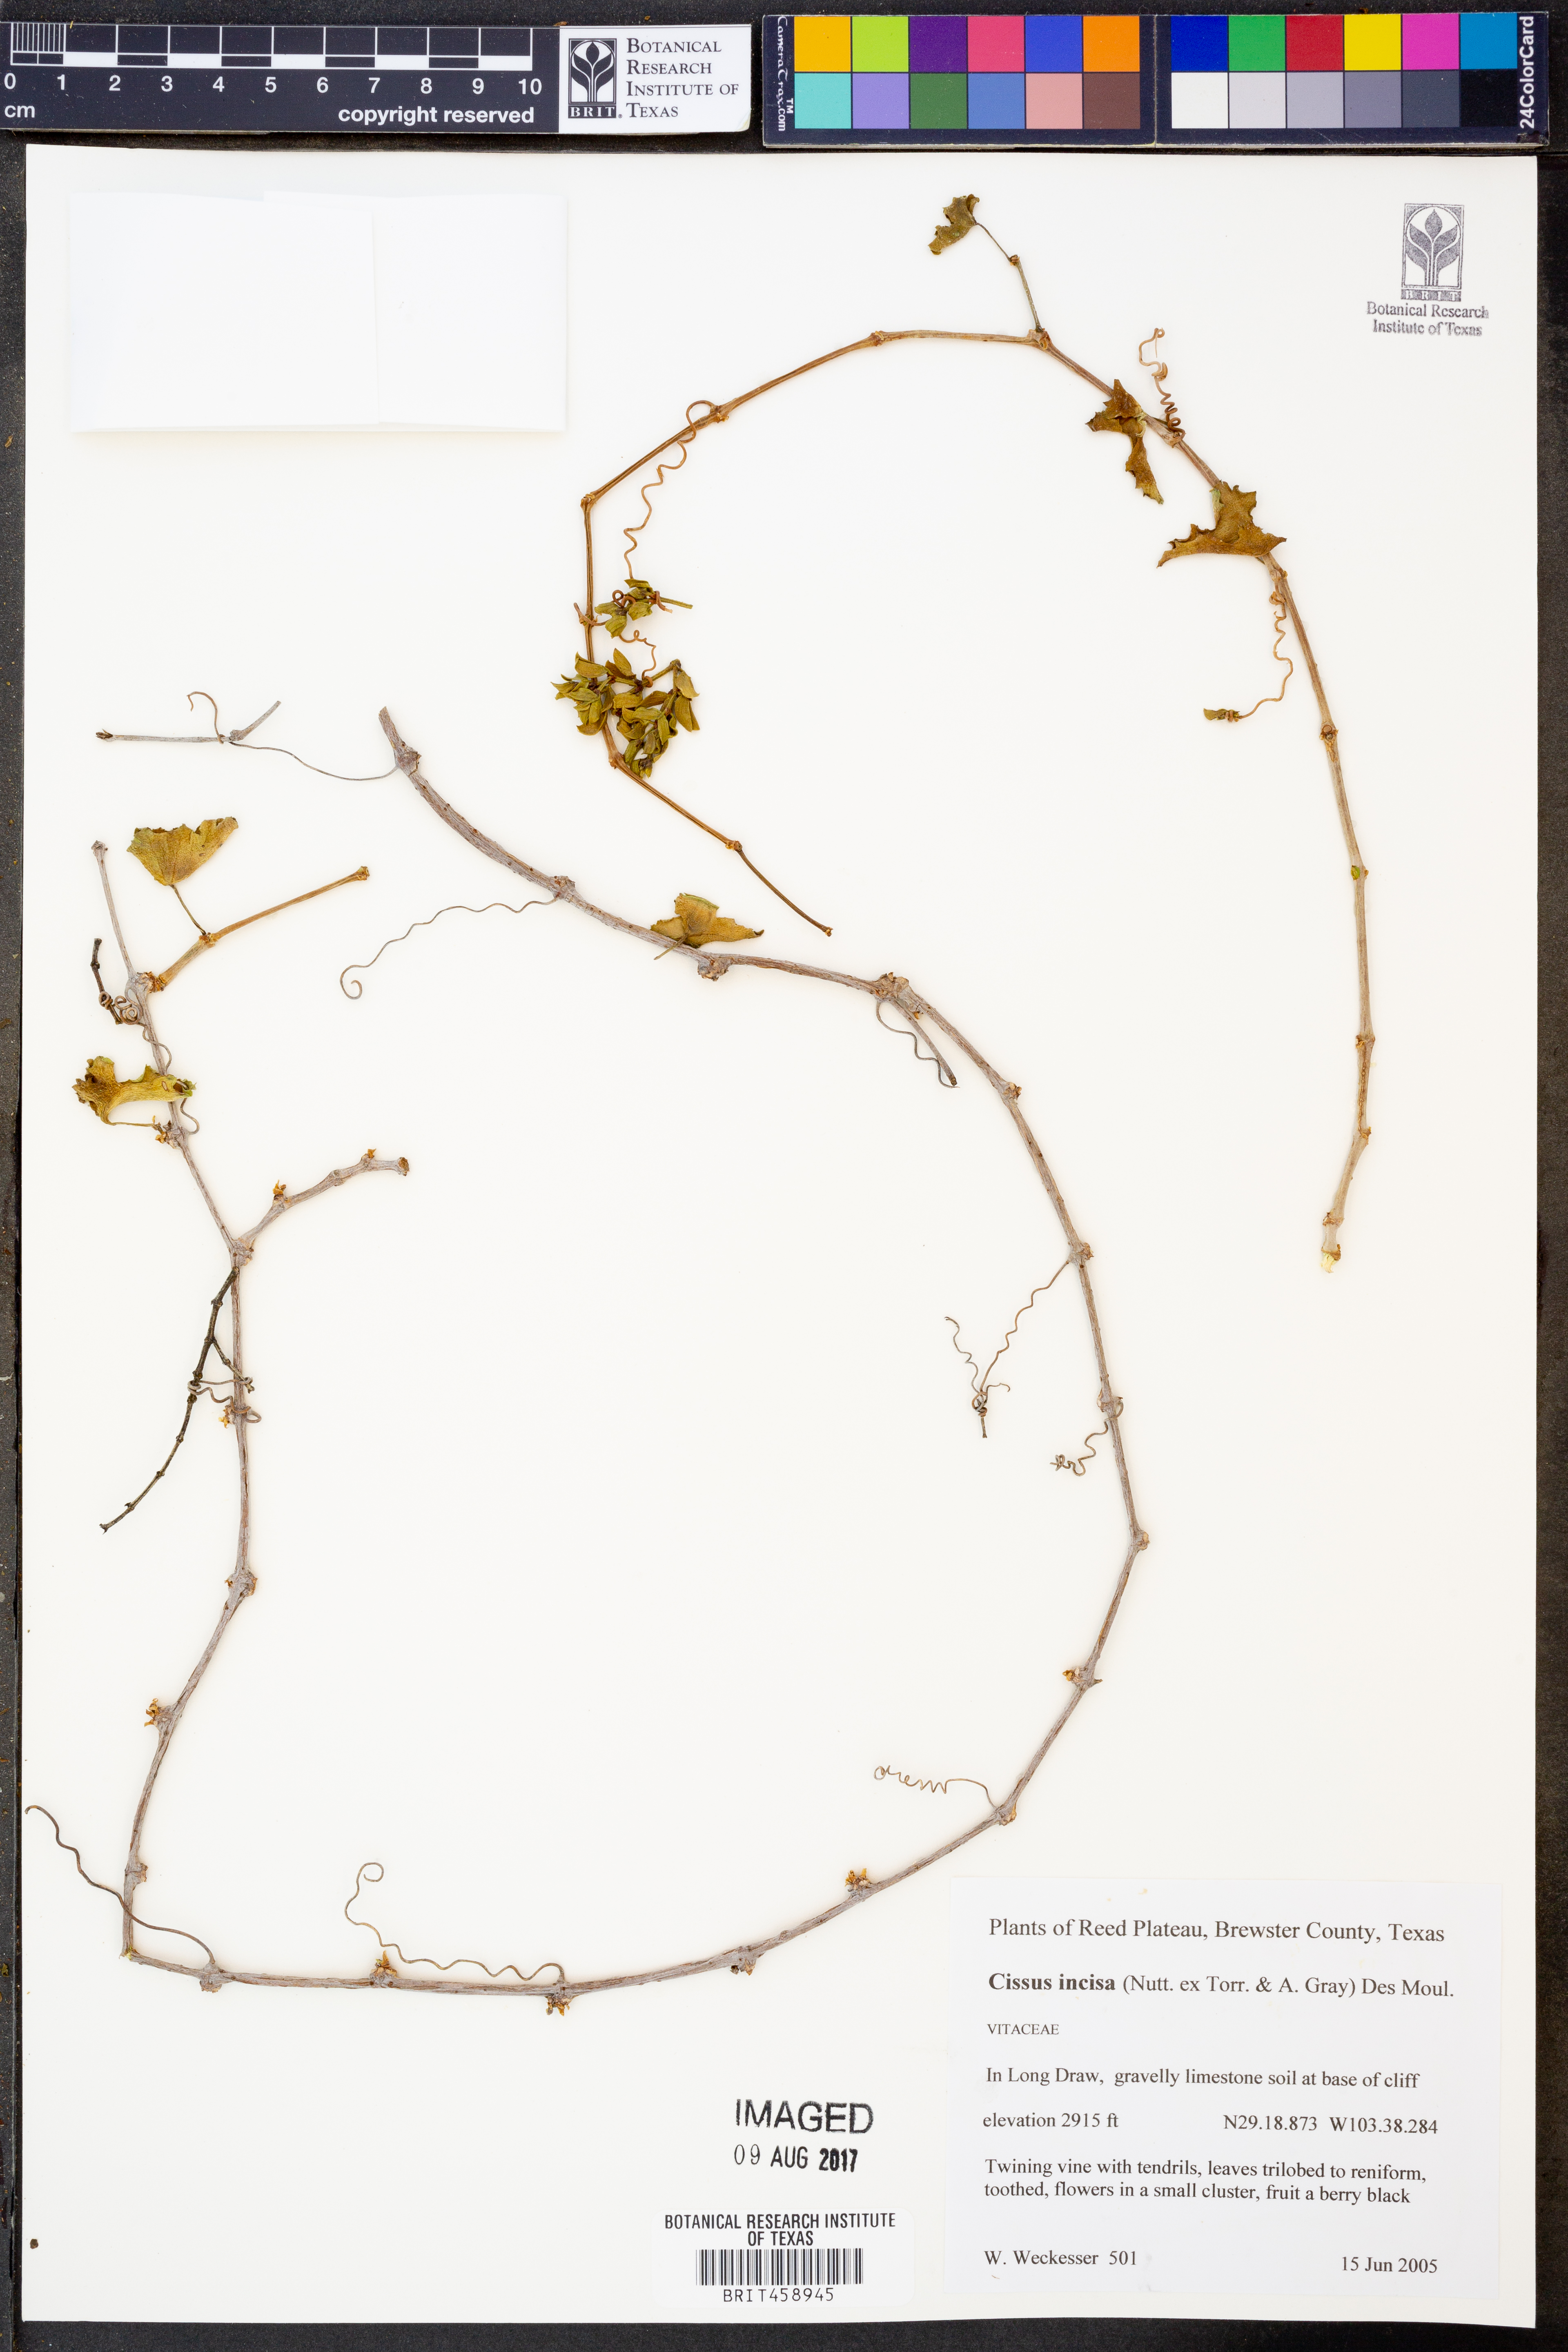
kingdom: Plantae
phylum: Tracheophyta
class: Magnoliopsida
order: Vitales
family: Vitaceae
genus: Cissus
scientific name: Cissus trifoliata
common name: Vine-sorrel
